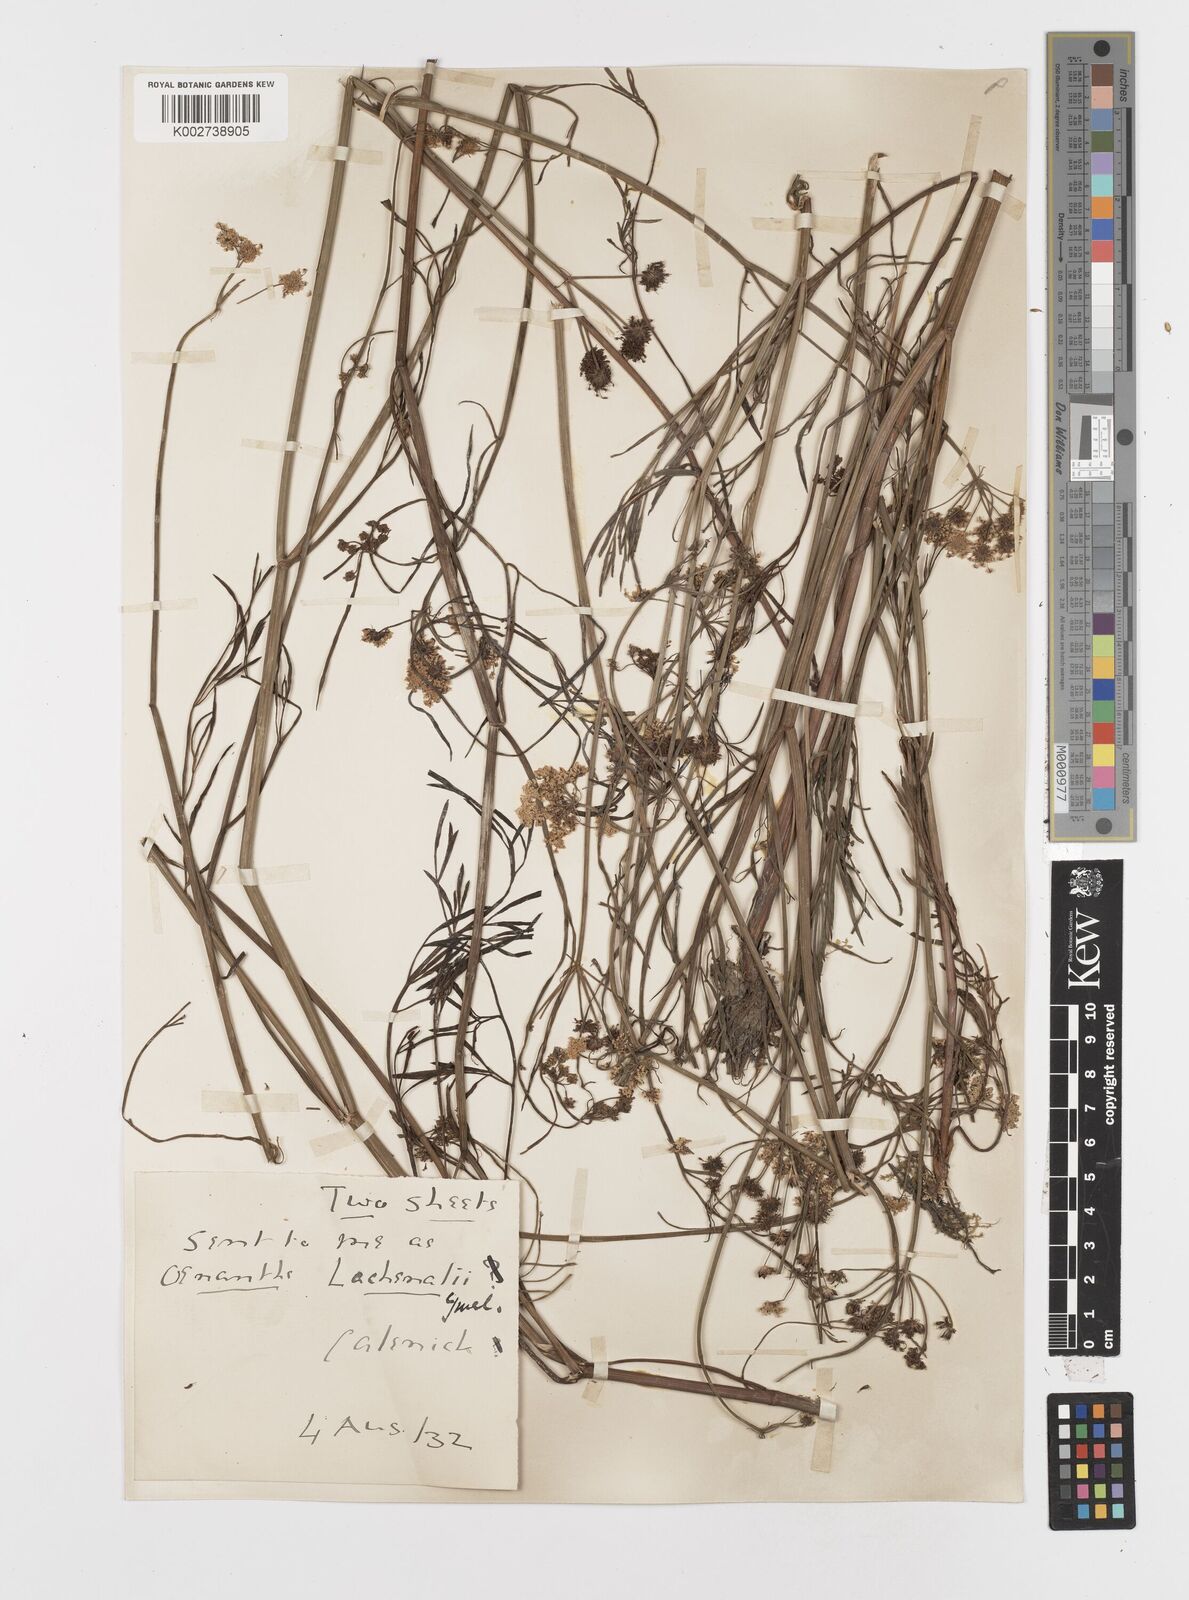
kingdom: Plantae
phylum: Tracheophyta
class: Magnoliopsida
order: Apiales
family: Apiaceae
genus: Oenanthe
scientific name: Oenanthe lachenalii
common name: Parsley water-dropwort
